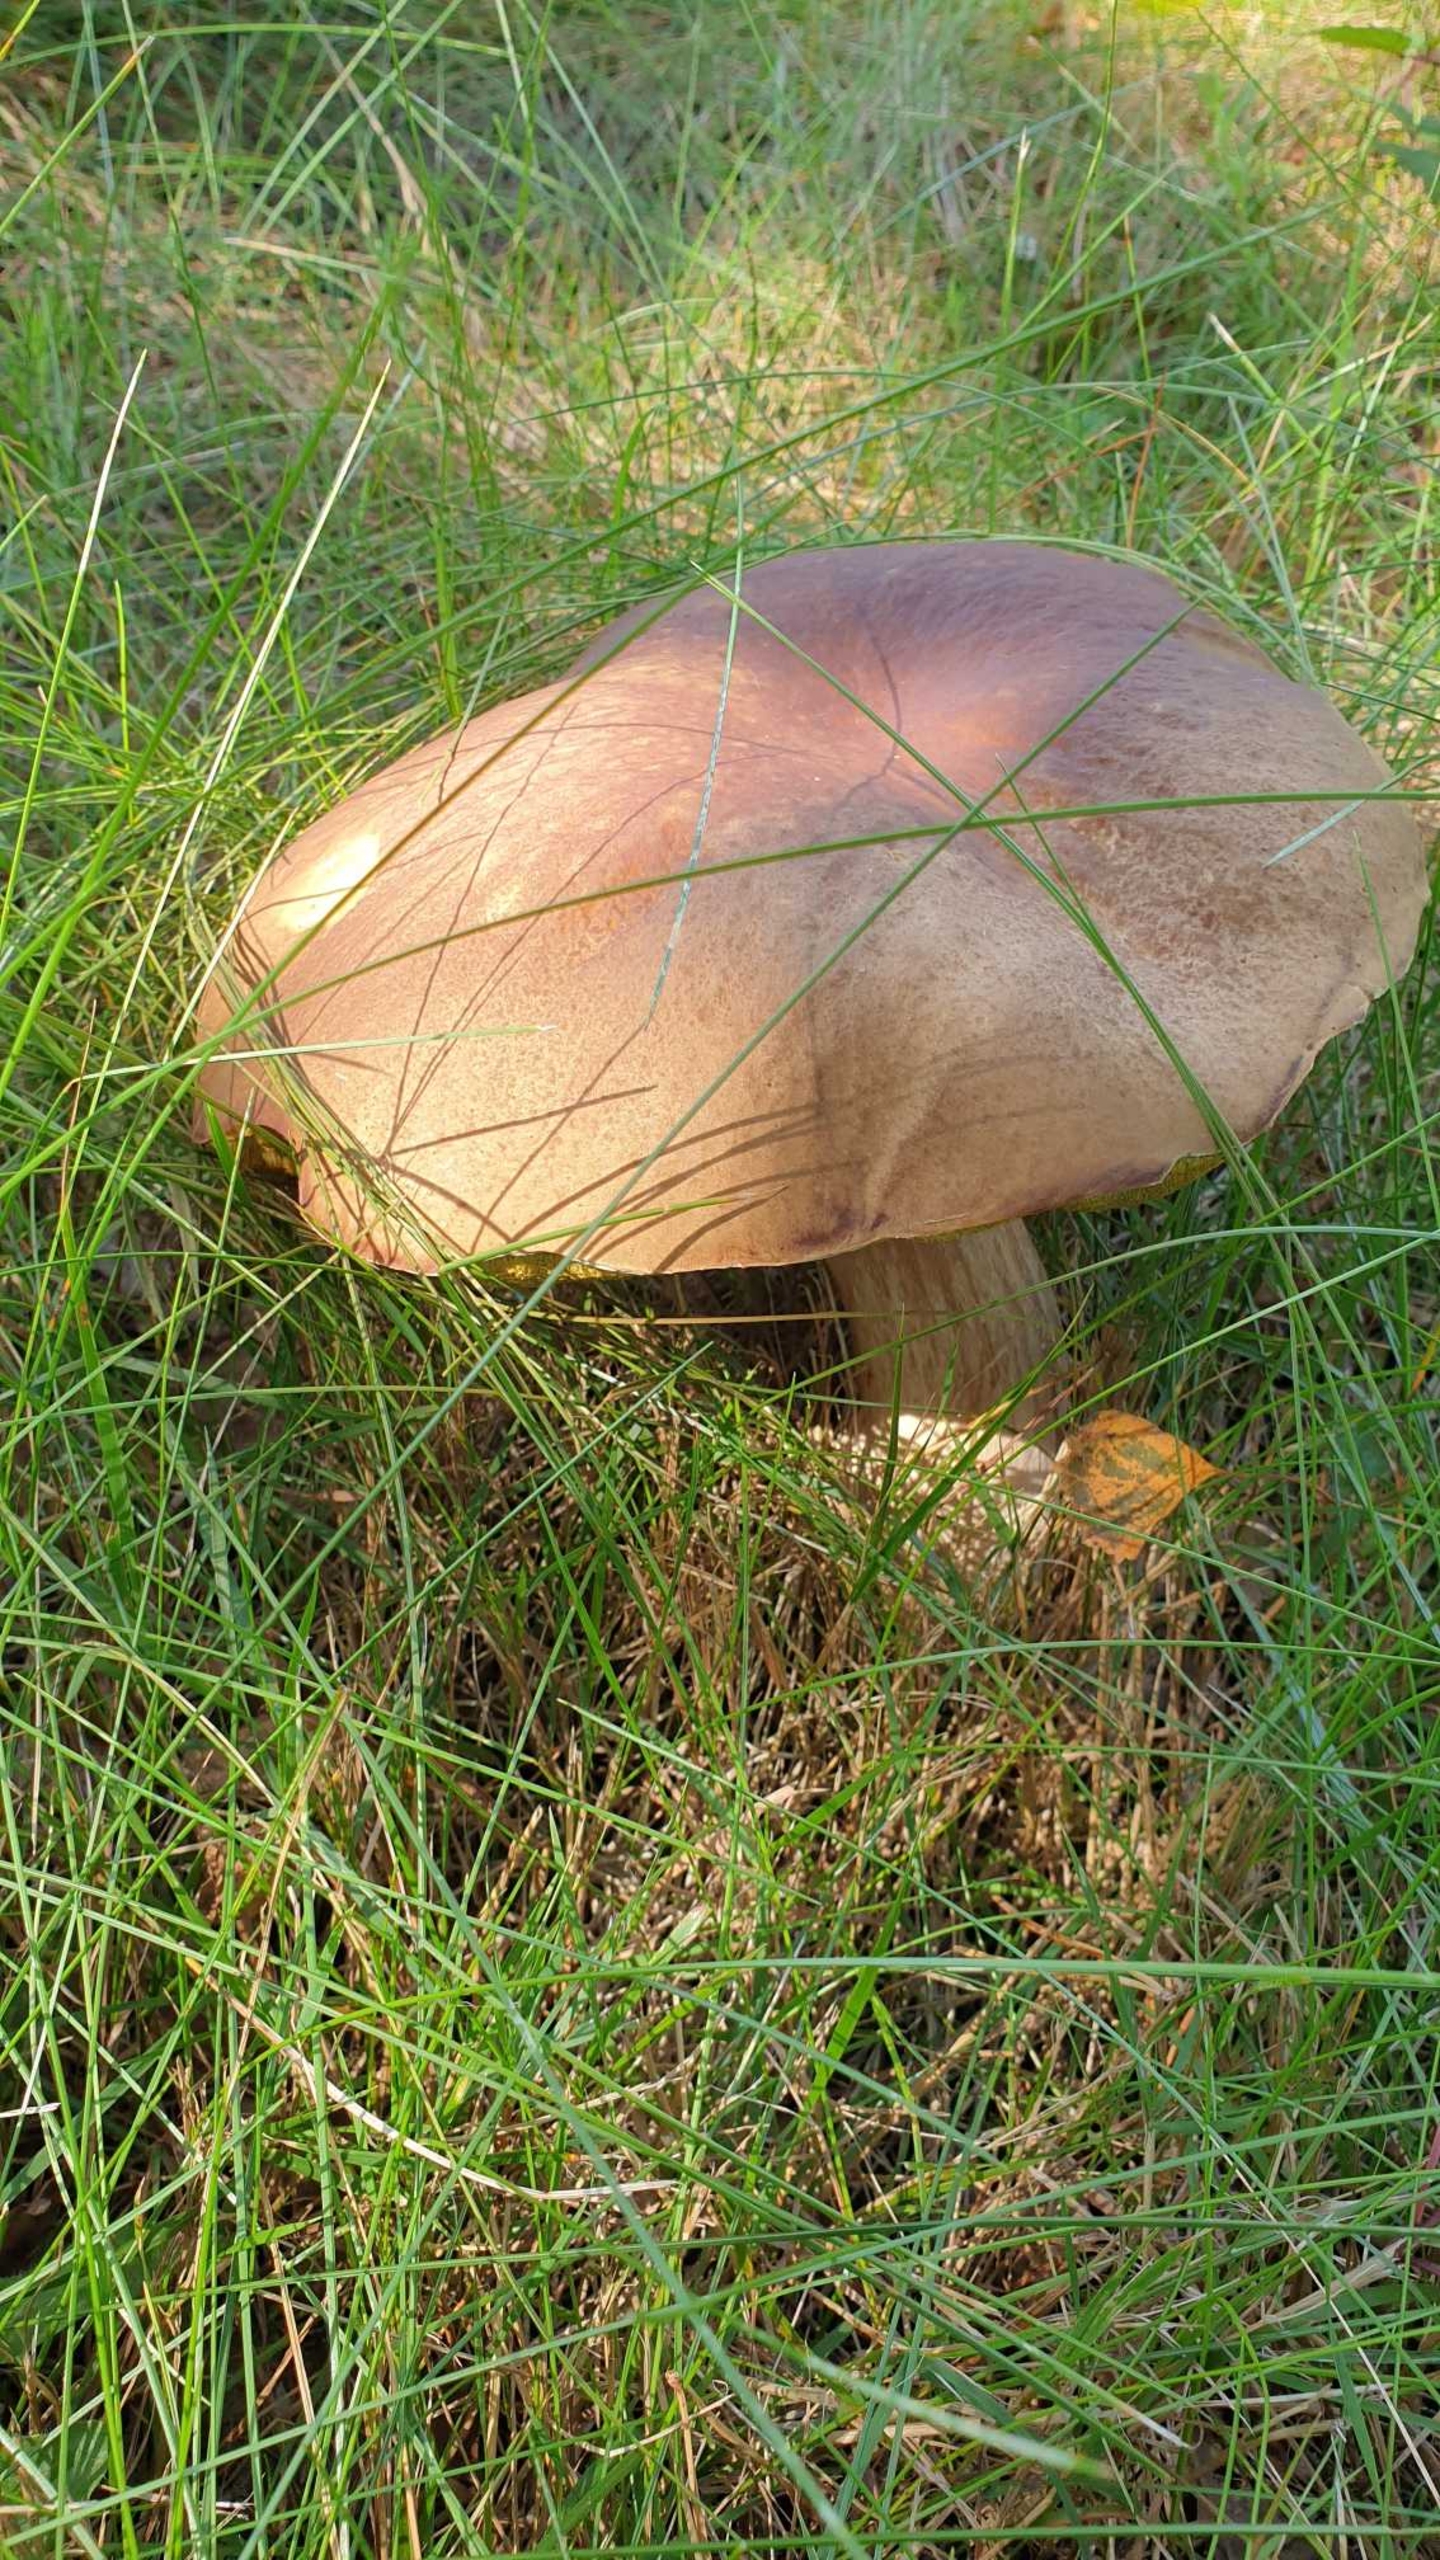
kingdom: Fungi
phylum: Basidiomycota
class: Agaricomycetes
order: Boletales
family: Boletaceae
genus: Boletus
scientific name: Boletus edulis
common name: Spiselig rørhat/karl johan
